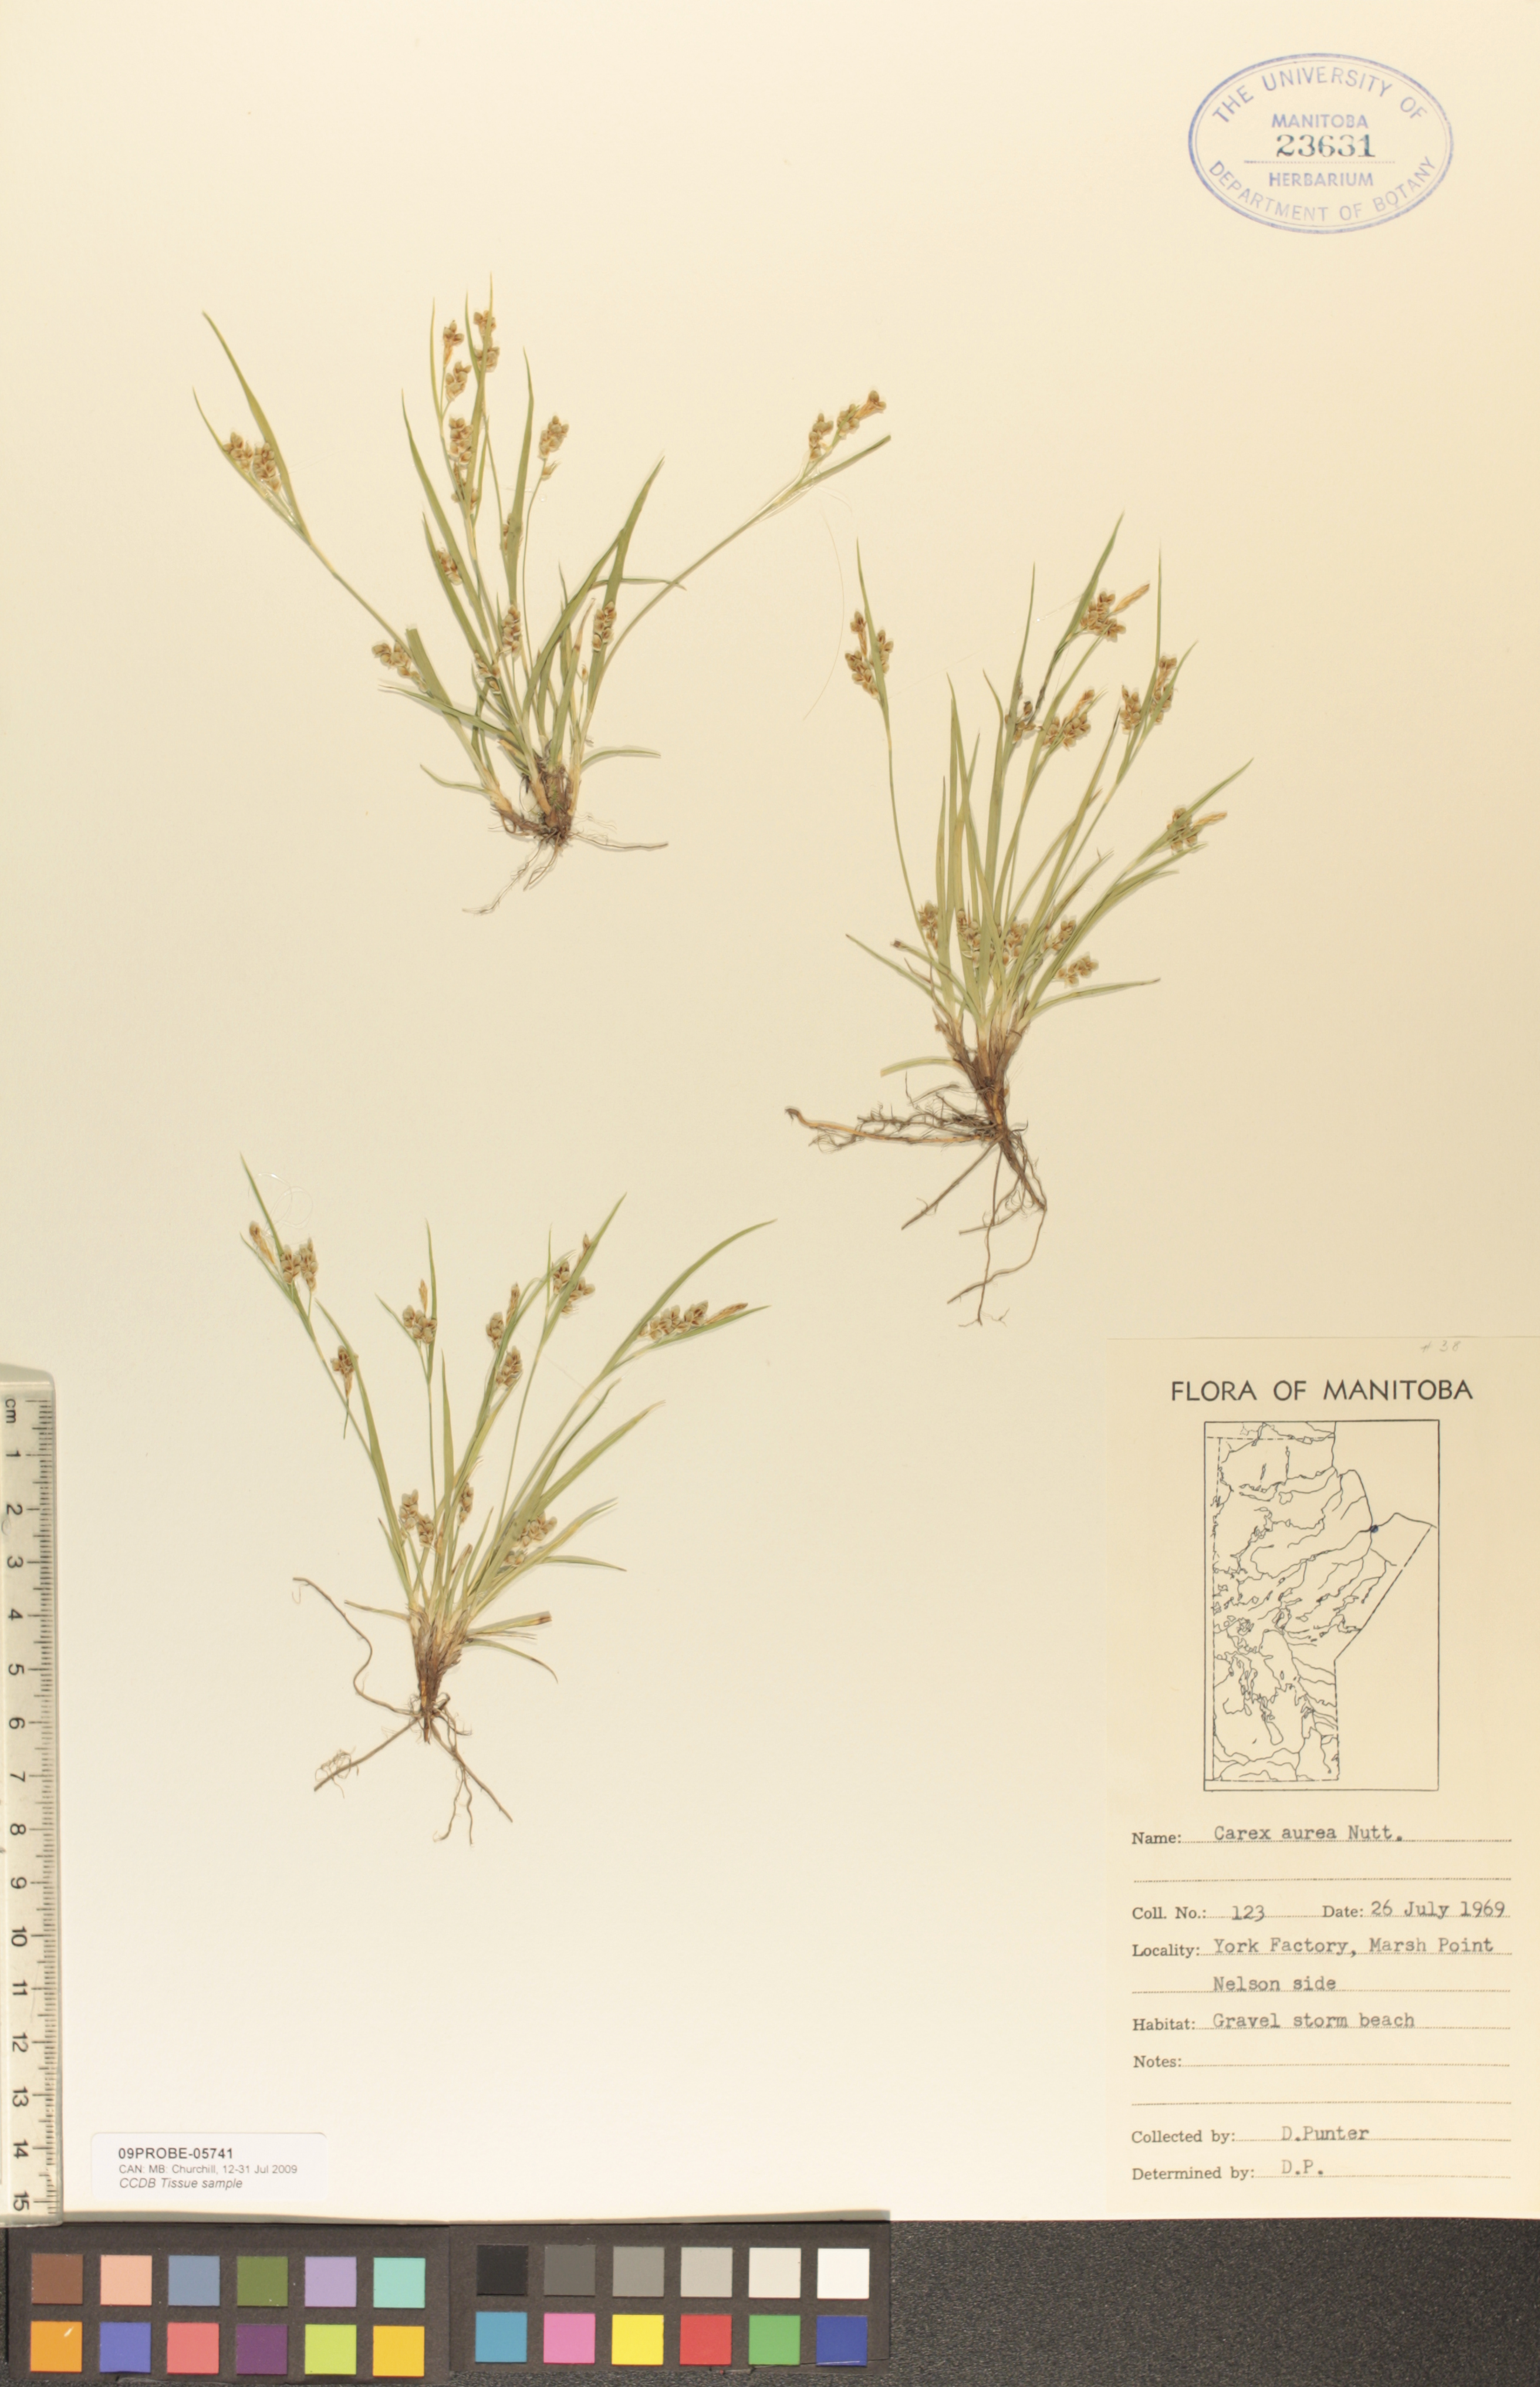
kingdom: Plantae
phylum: Tracheophyta
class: Liliopsida
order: Poales
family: Cyperaceae
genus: Carex
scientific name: Carex aurea
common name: Golden sedge
